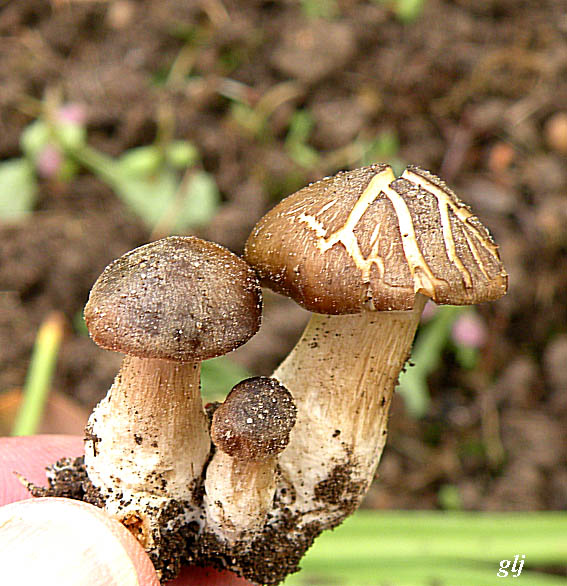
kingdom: Fungi
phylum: Basidiomycota
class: Agaricomycetes
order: Agaricales
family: Entolomataceae
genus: Entoloma
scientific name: Entoloma clypeatum
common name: flammet rødblad
